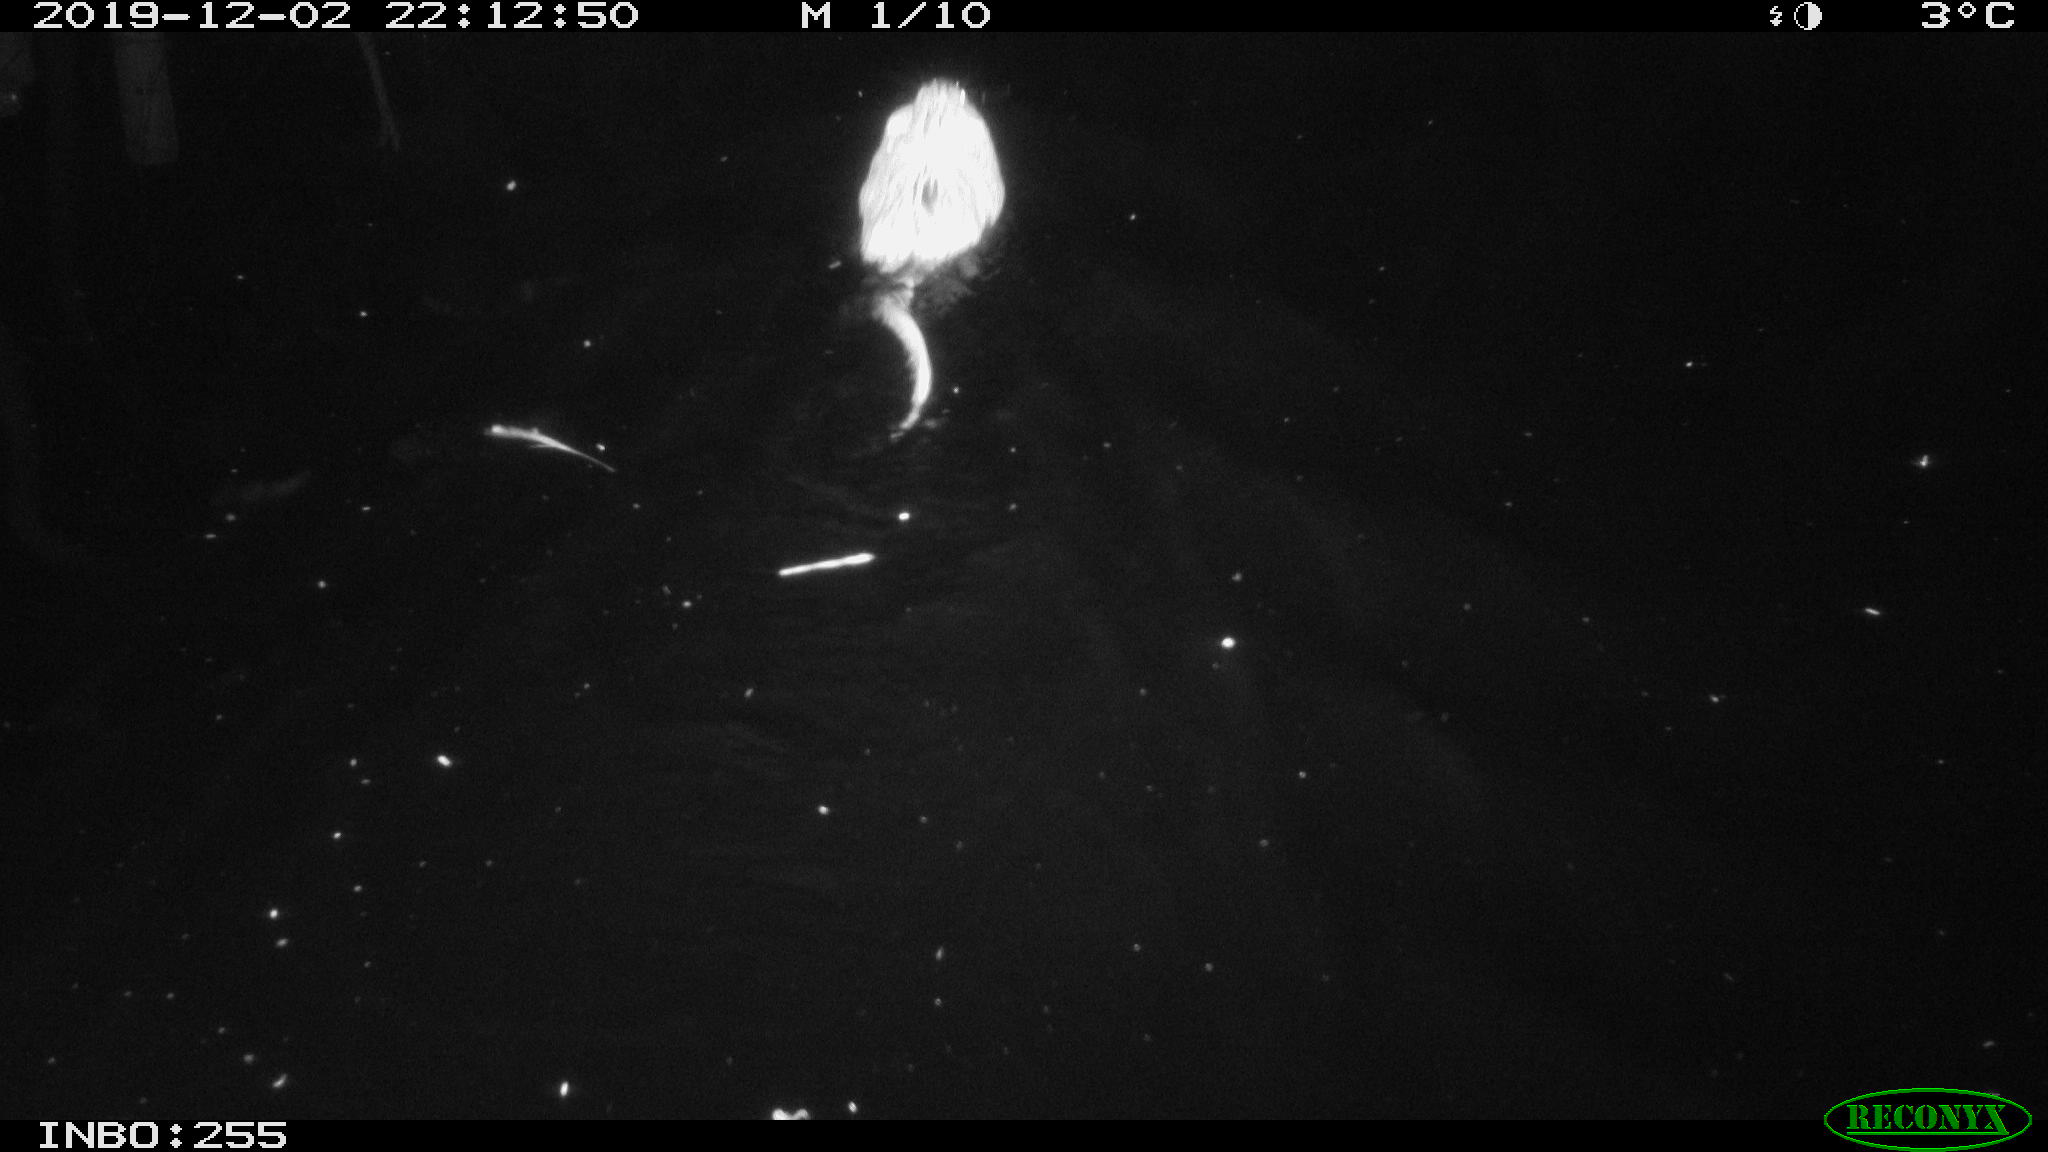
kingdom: Animalia
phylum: Chordata
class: Mammalia
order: Rodentia
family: Cricetidae
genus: Ondatra
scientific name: Ondatra zibethicus
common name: Muskrat
